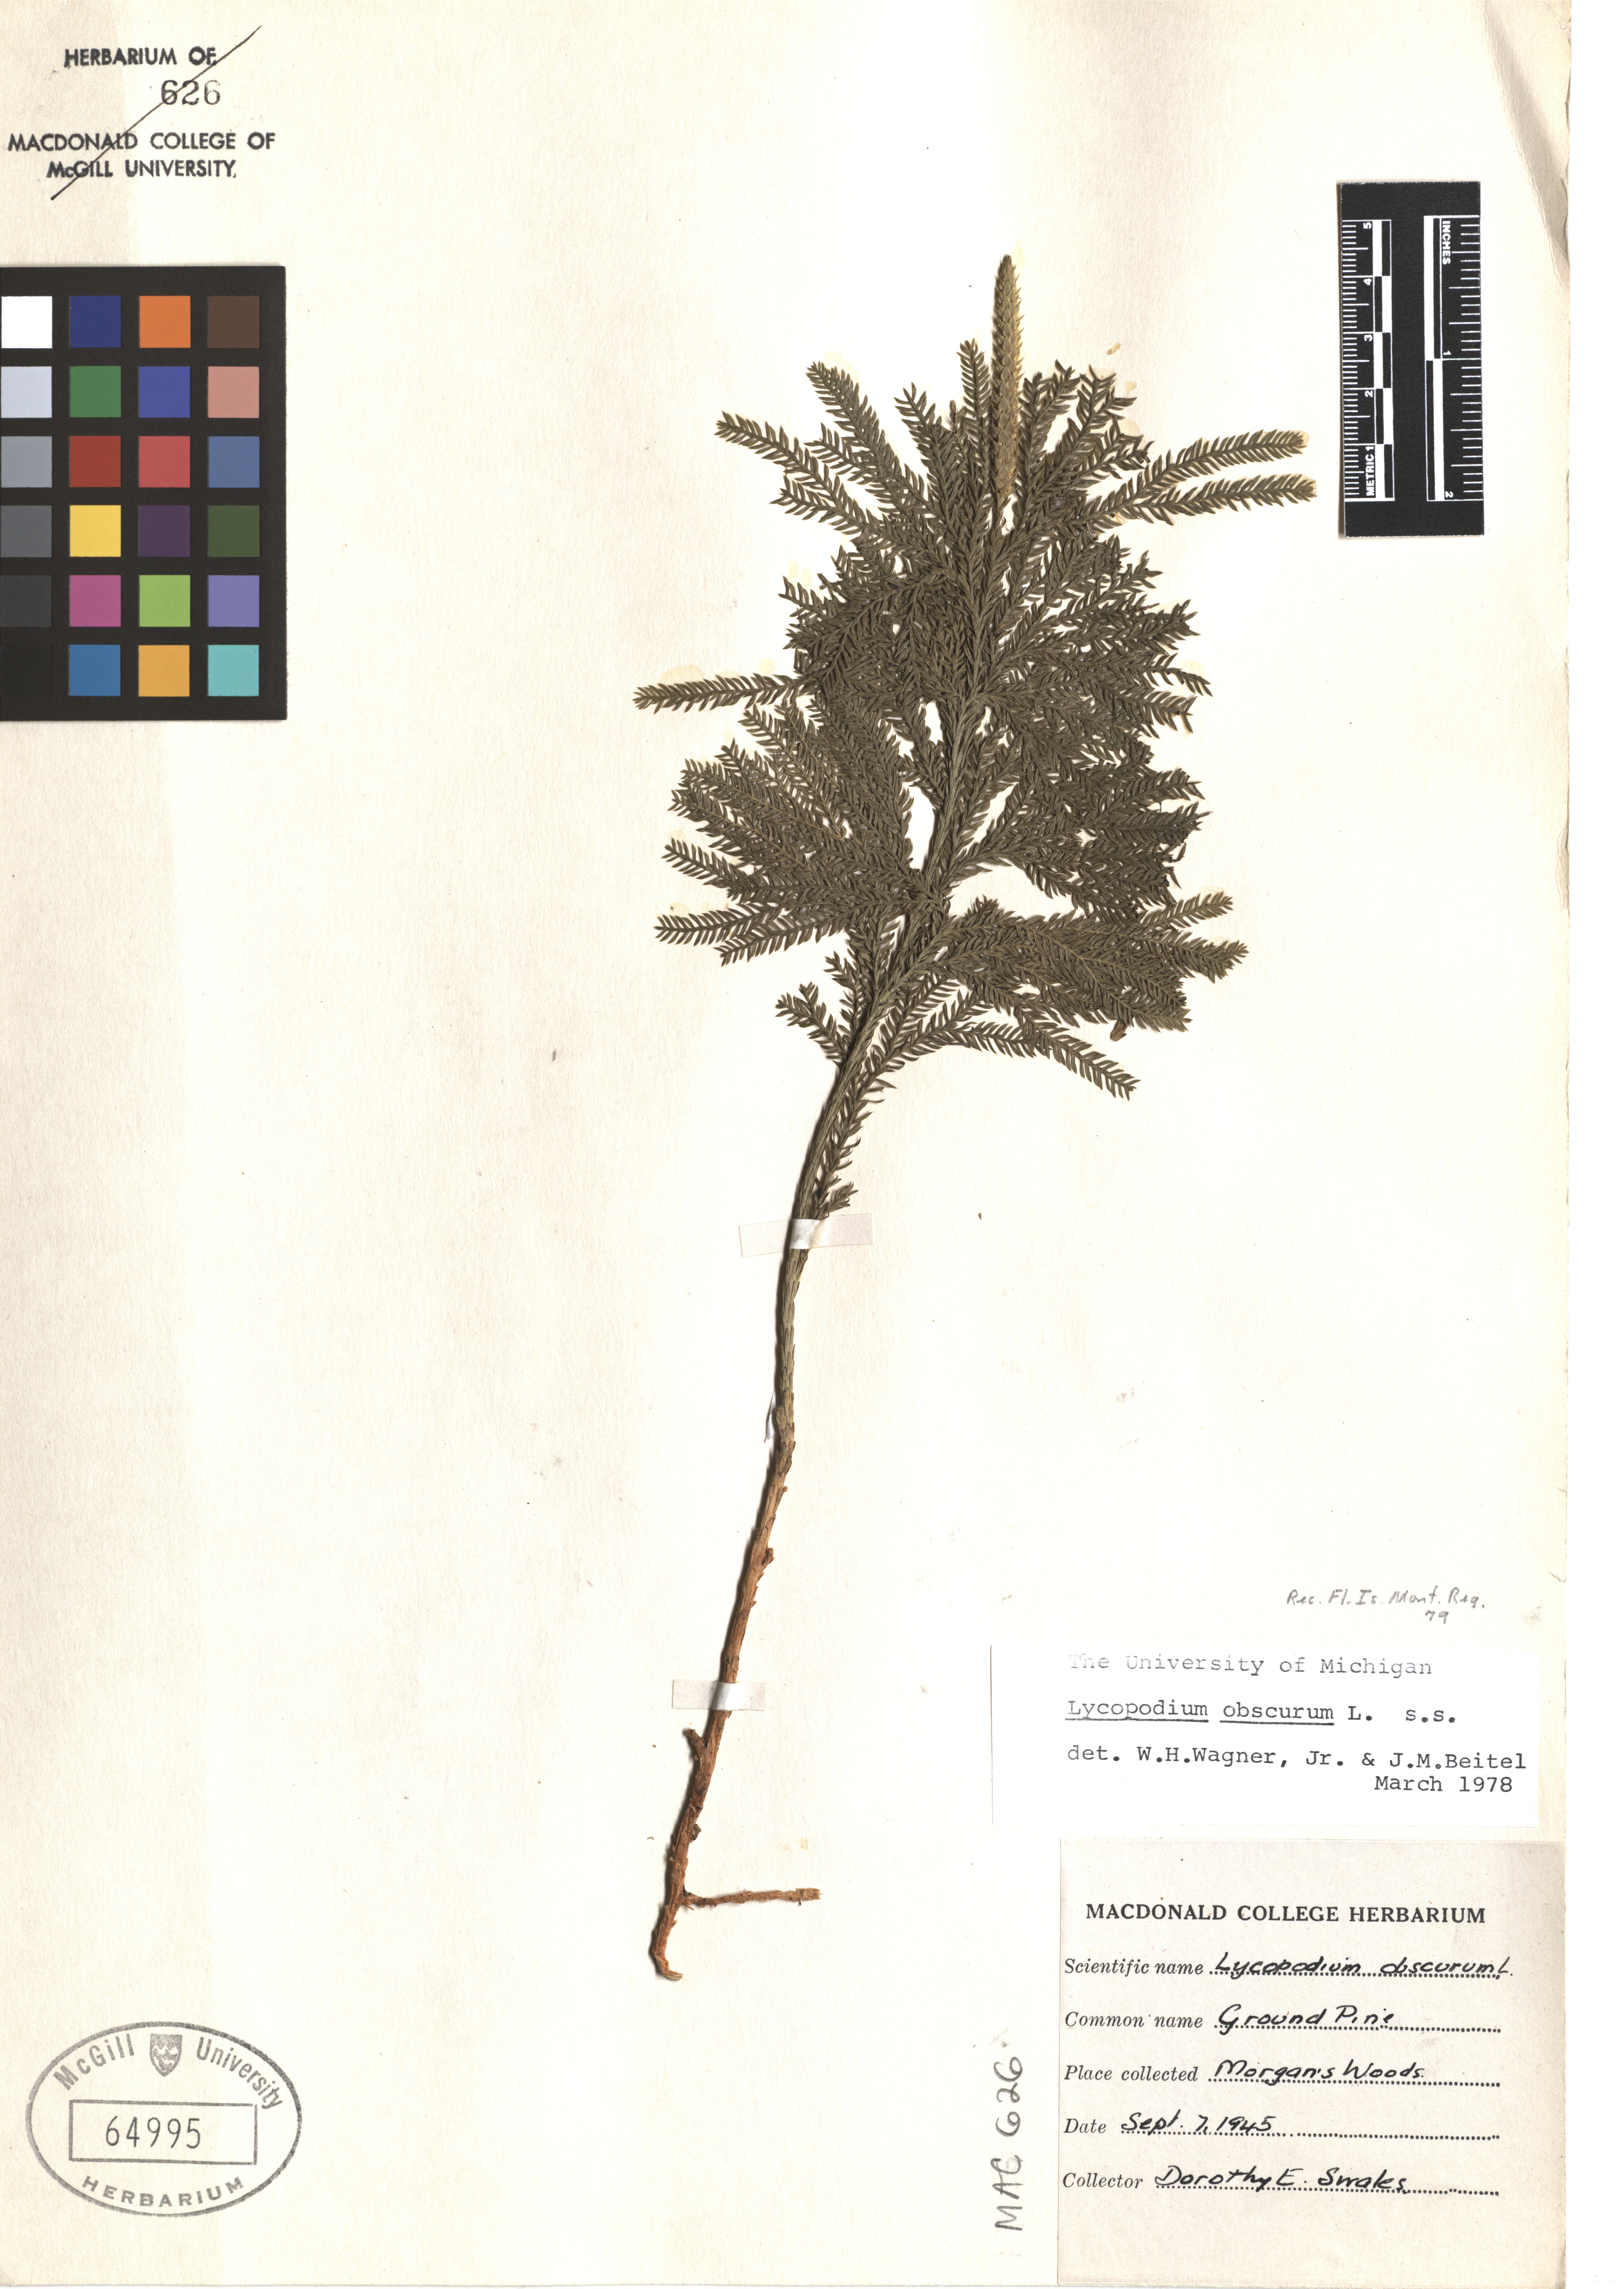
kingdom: Plantae
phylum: Tracheophyta
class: Lycopodiopsida
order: Lycopodiales
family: Lycopodiaceae
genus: Dendrolycopodium
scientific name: Dendrolycopodium obscurum
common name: Common ground-pine
